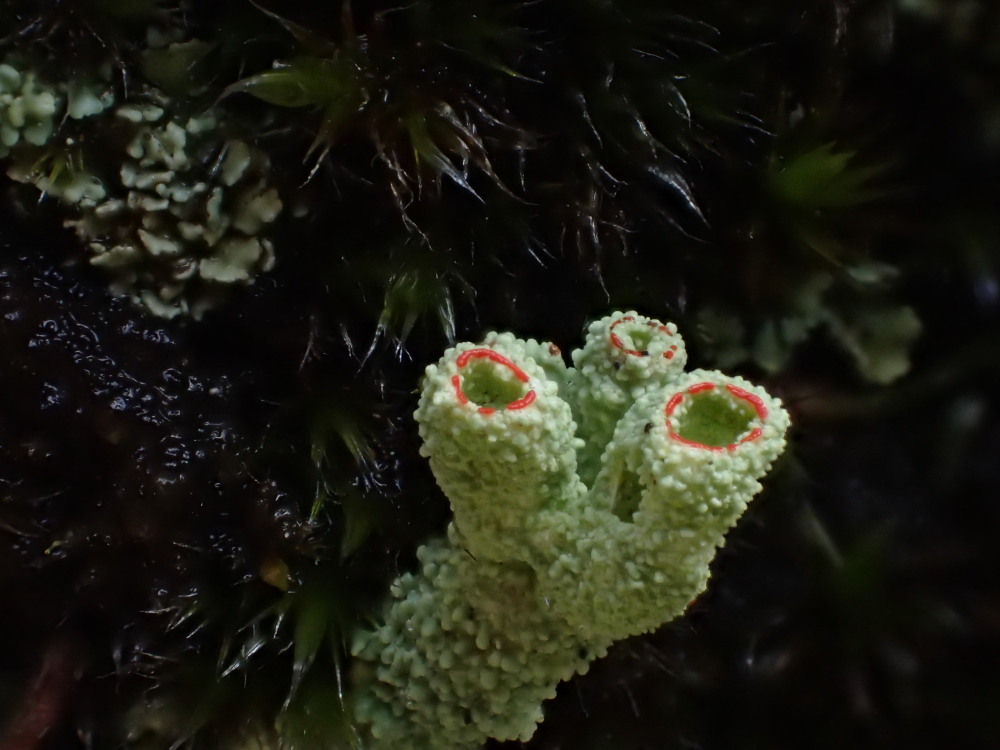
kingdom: Fungi
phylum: Ascomycota
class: Lecanoromycetes
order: Lecanorales
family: Cladoniaceae
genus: Cladonia
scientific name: Cladonia diversa
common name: rød bægerlav
